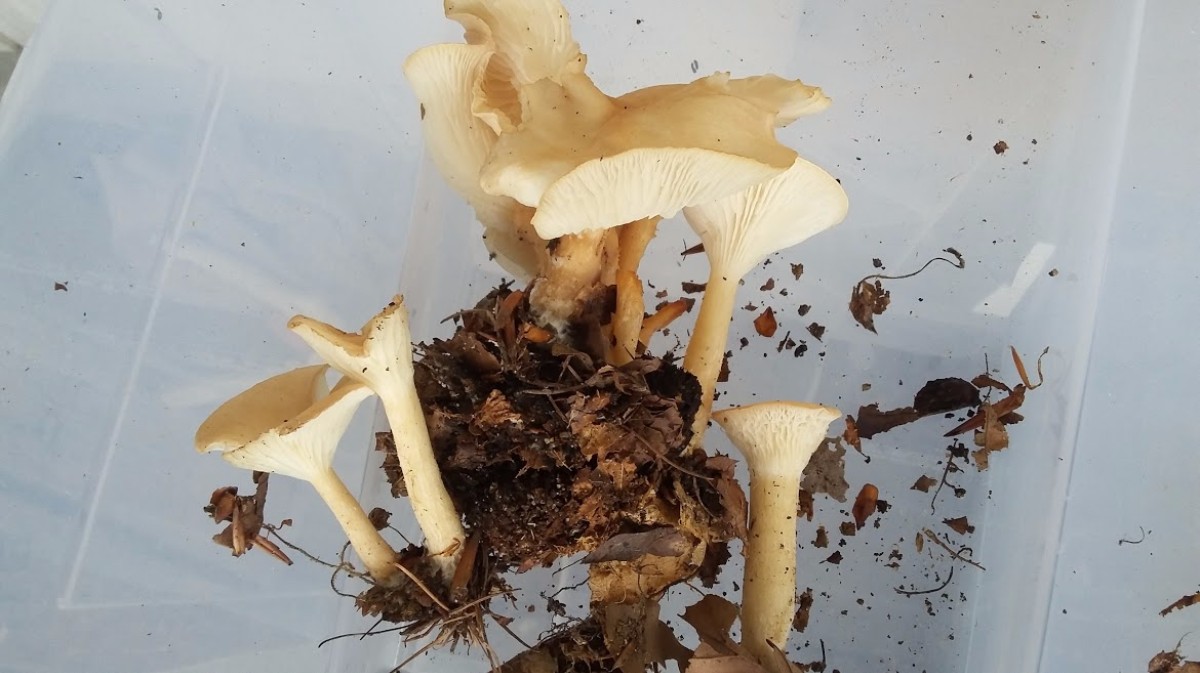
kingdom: Fungi
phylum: Basidiomycota
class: Agaricomycetes
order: Agaricales
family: Tricholomataceae
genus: Infundibulicybe
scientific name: Infundibulicybe gibba
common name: almindelig tragthat
